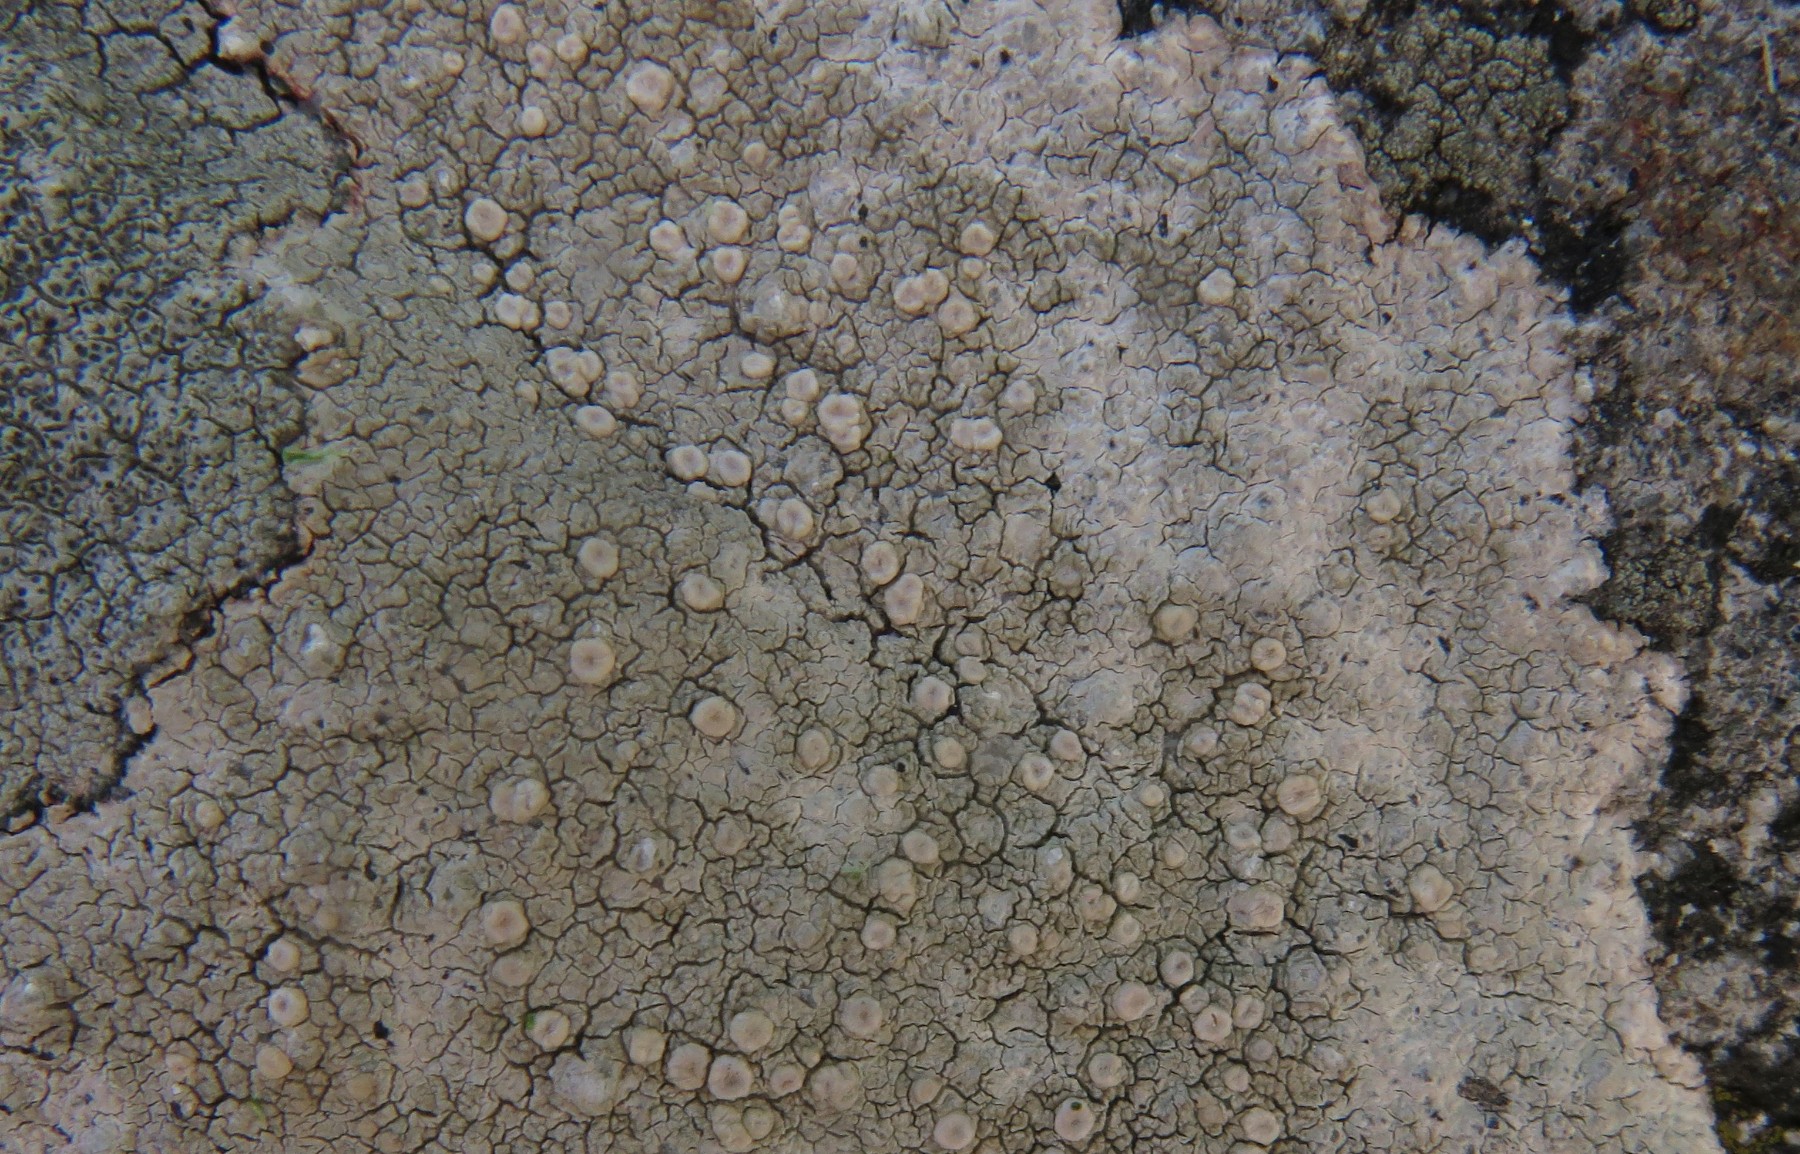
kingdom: Fungi
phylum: Ascomycota
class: Lecanoromycetes
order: Pertusariales
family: Ochrolechiaceae
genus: Ochrolechia
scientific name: Ochrolechia parella
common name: almindelig blegskivelav
